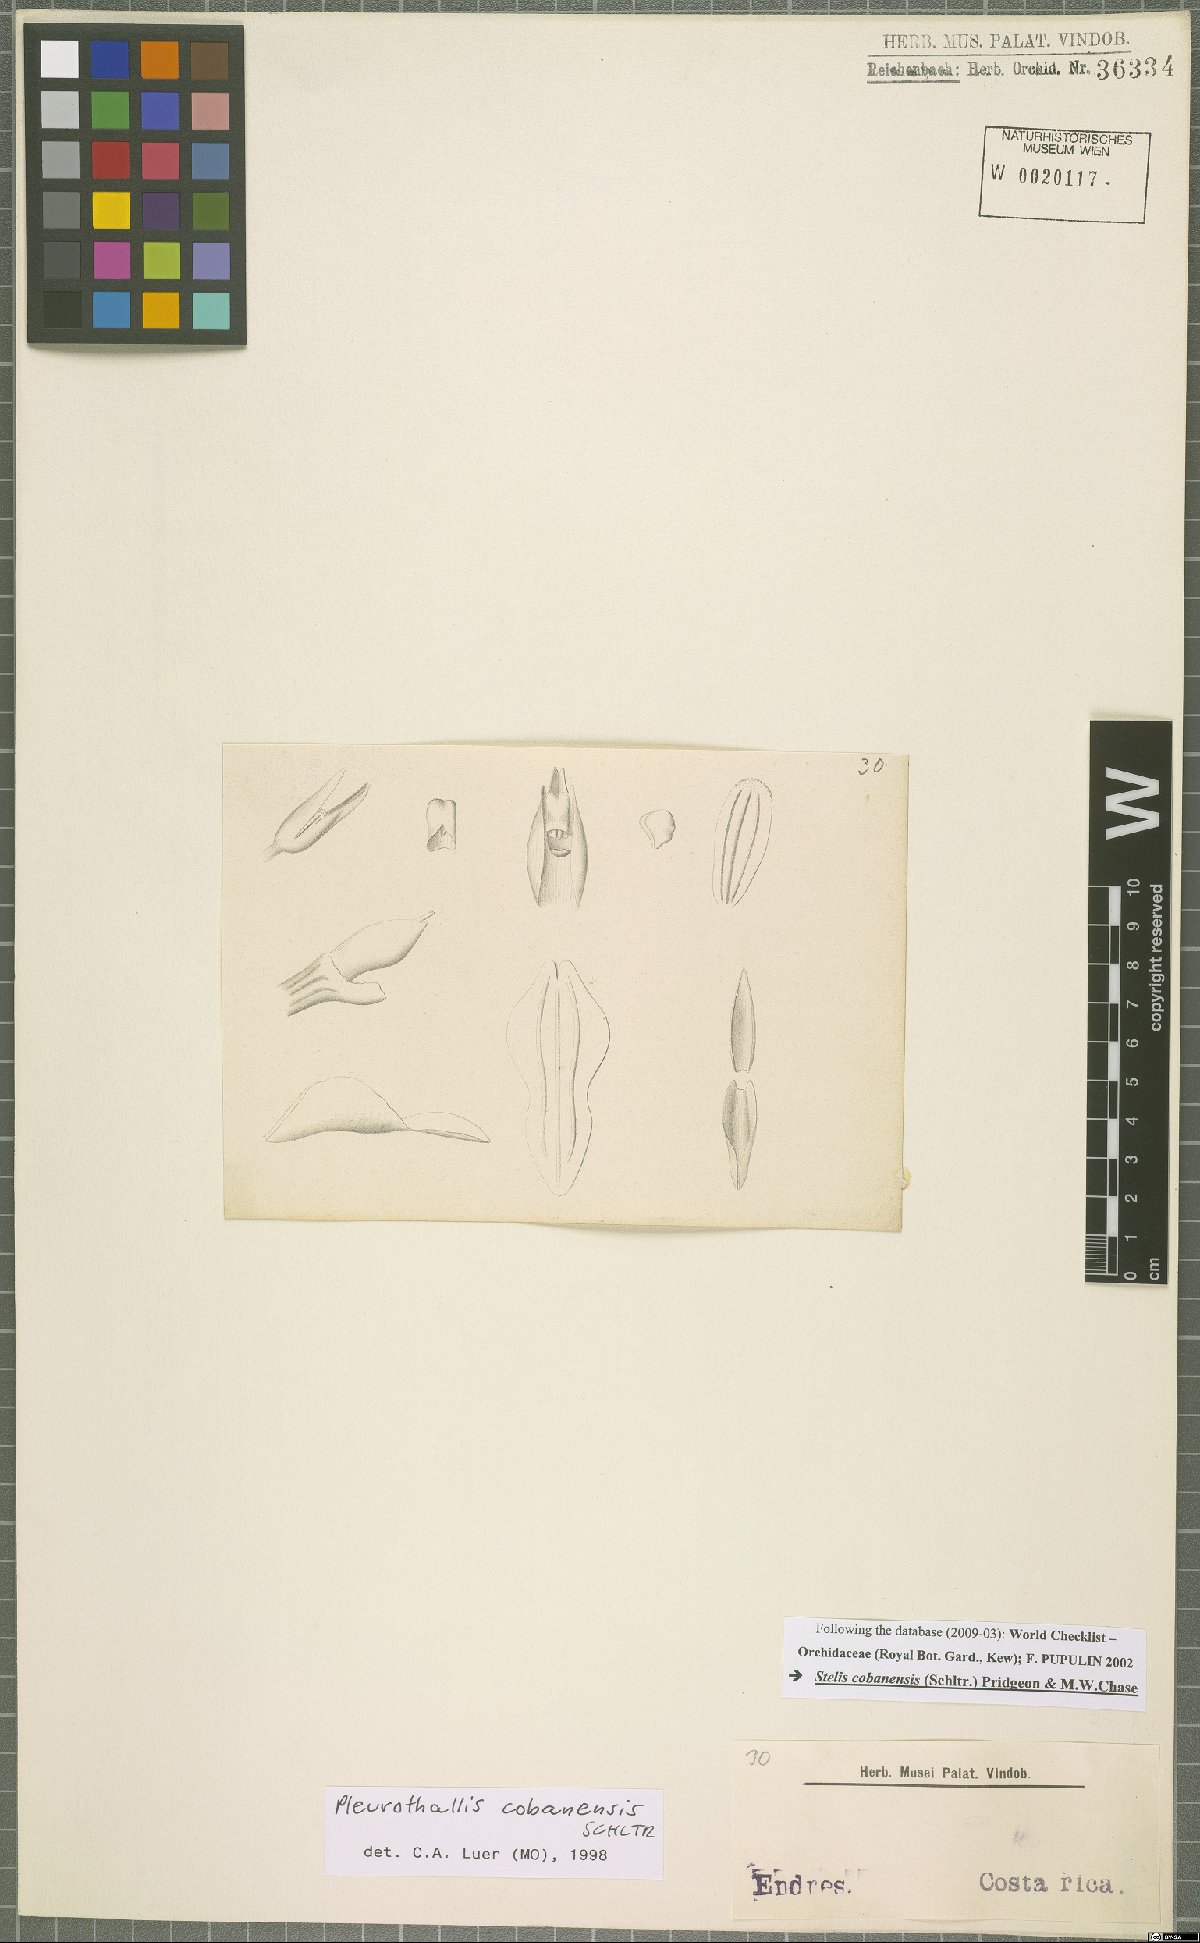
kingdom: Plantae
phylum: Tracheophyta
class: Liliopsida
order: Asparagales
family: Orchidaceae
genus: Stelis
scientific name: Stelis cobanensis
